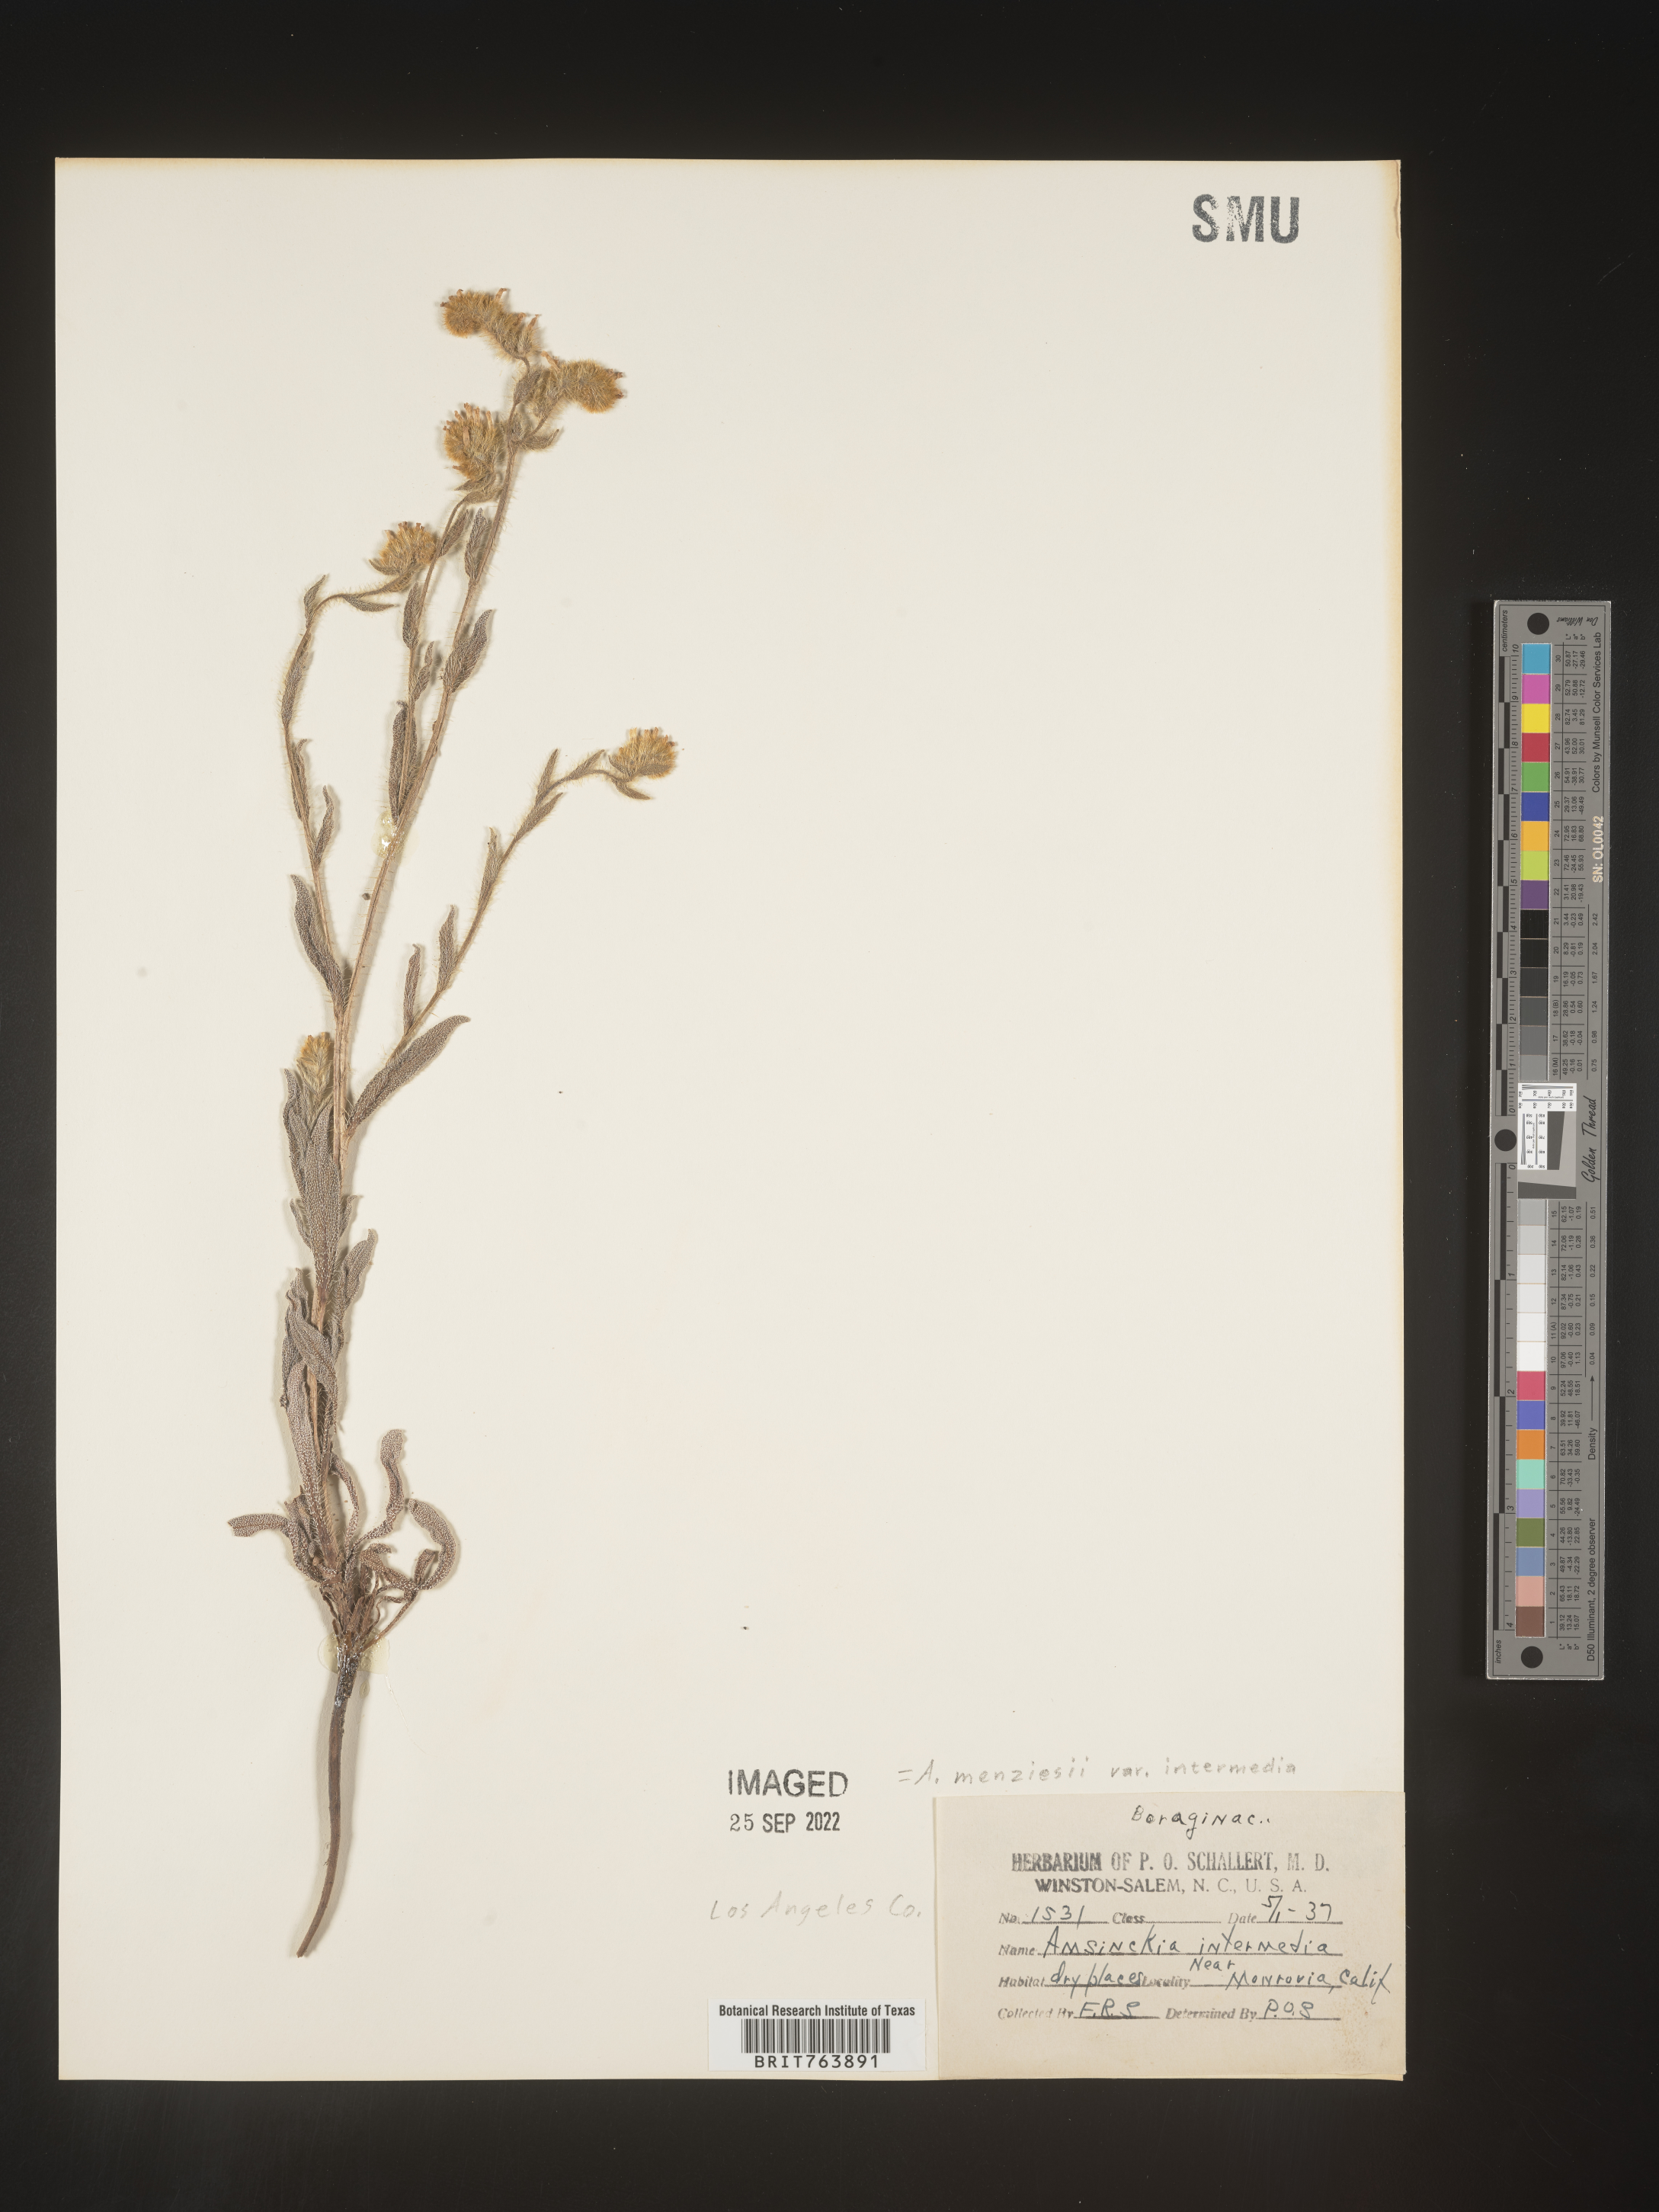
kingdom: Plantae
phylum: Tracheophyta
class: Magnoliopsida
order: Boraginales
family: Boraginaceae
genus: Amsinckia
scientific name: Amsinckia menziesii
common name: Menzies' fiddleneck
